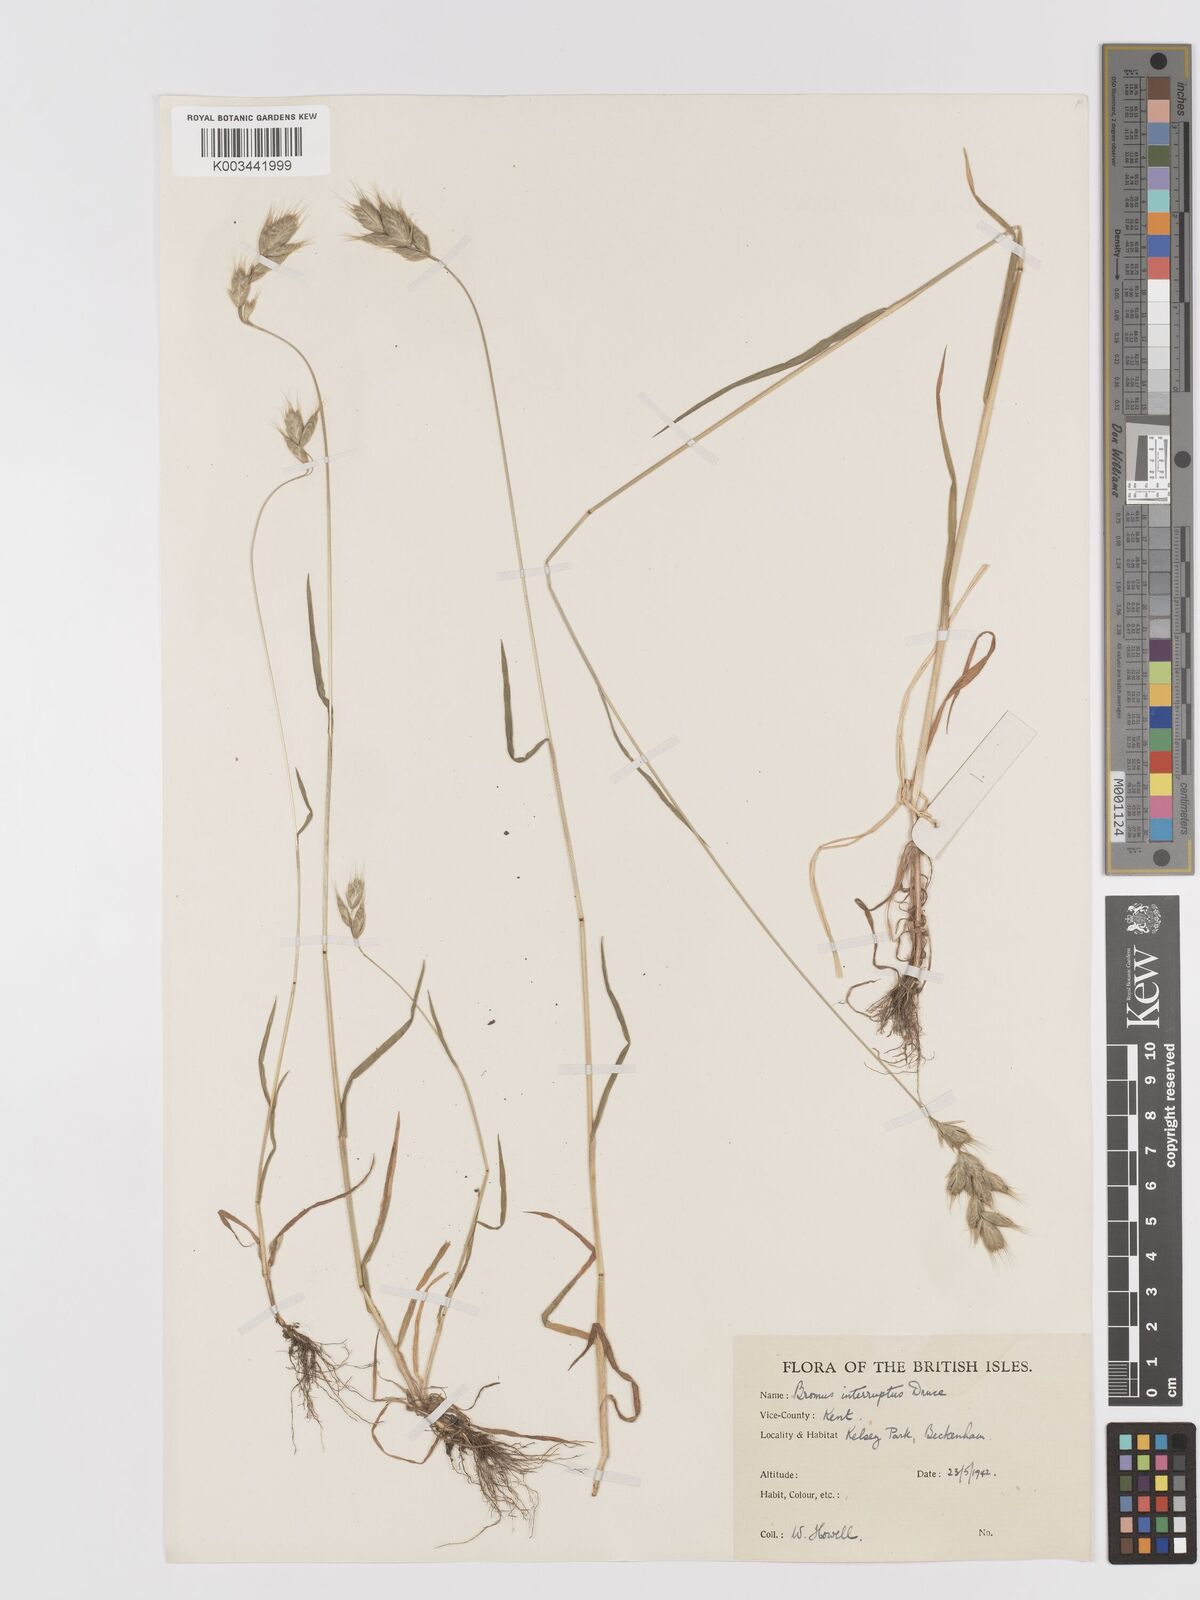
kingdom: Plantae
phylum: Tracheophyta
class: Liliopsida
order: Poales
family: Poaceae
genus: Bromus
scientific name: Bromus interruptus
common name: Interrupted brome
